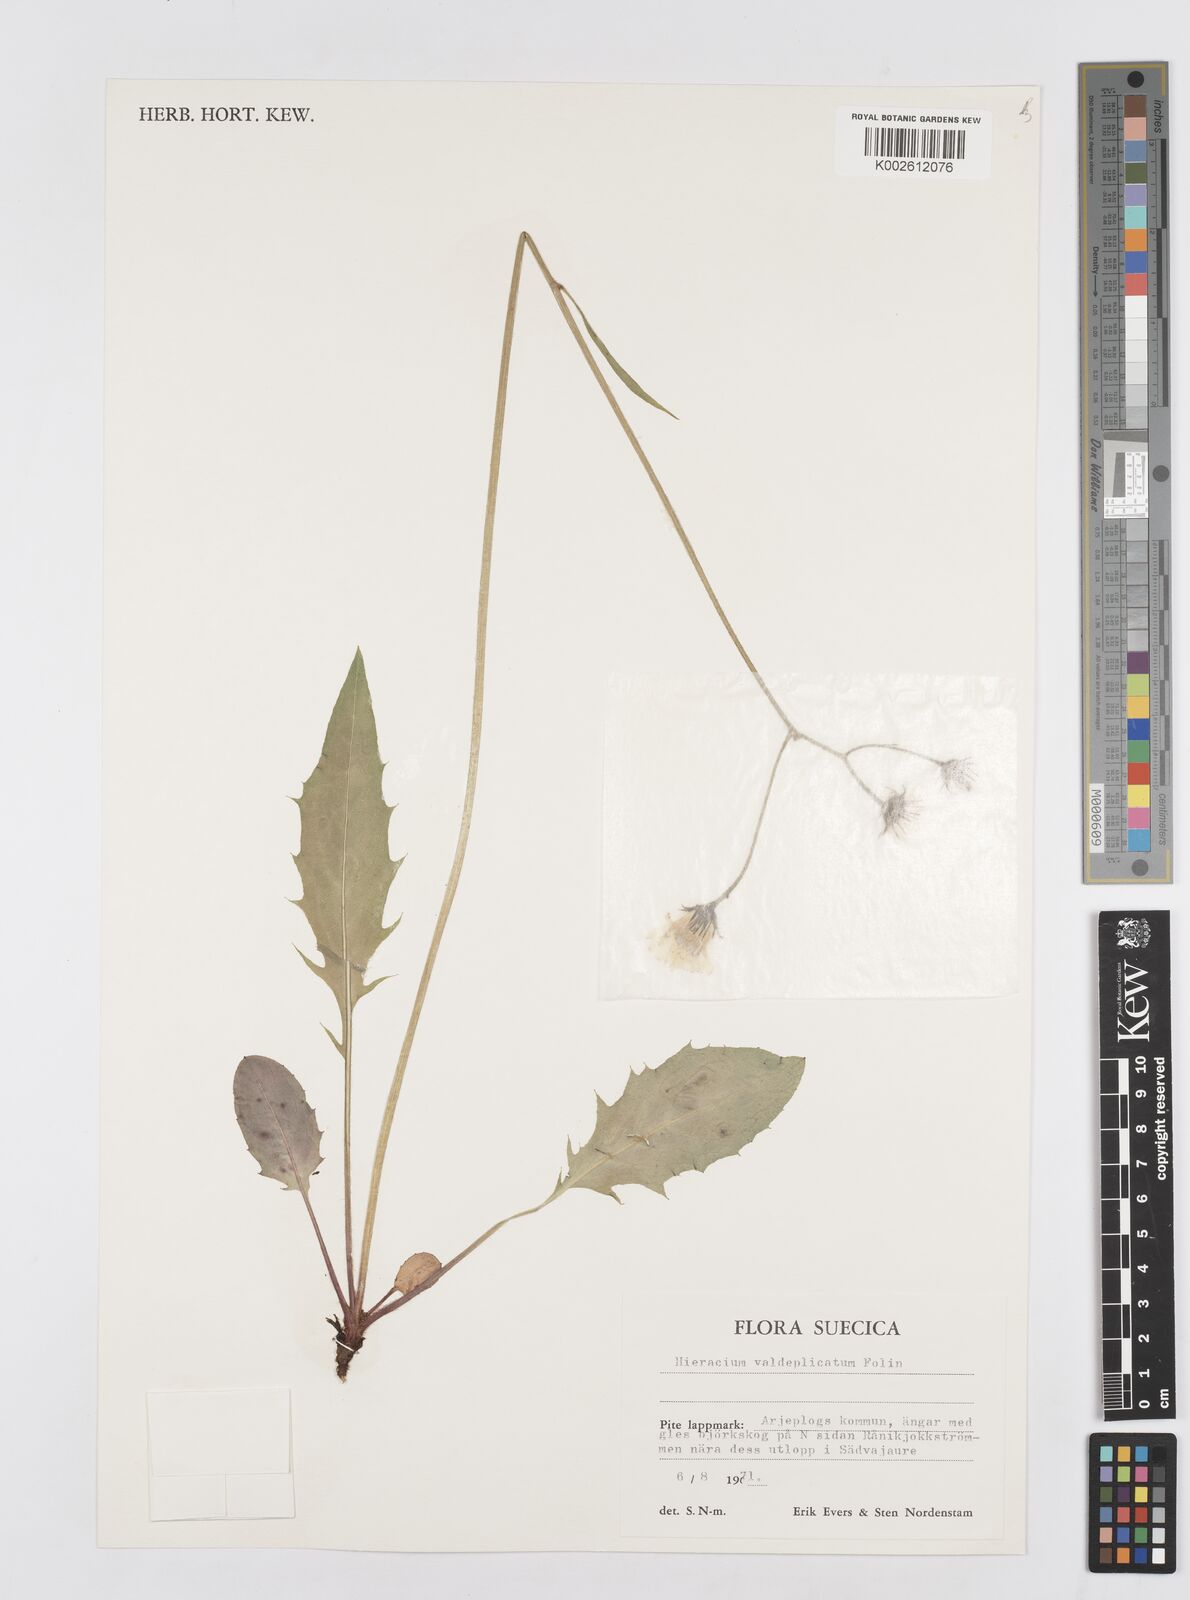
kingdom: Plantae
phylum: Tracheophyta
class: Magnoliopsida
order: Asterales
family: Asteraceae
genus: Hieracium
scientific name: Hieracium valdeplicatum
